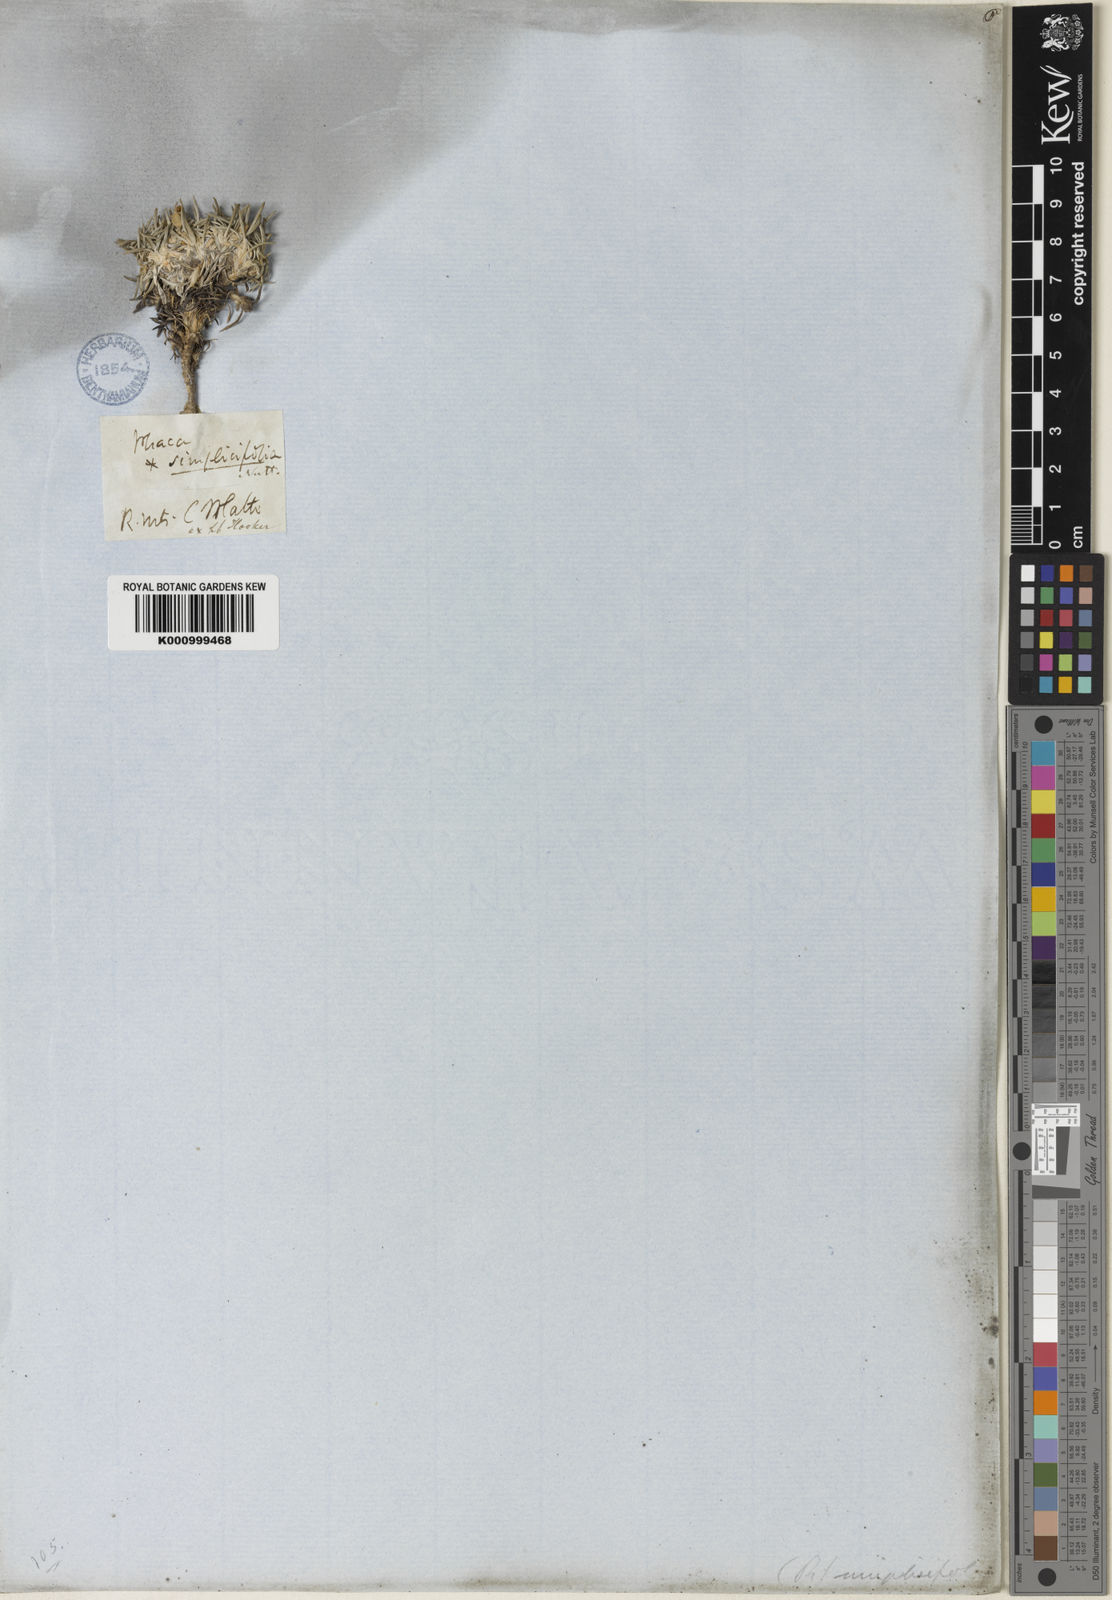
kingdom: Plantae
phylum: Tracheophyta
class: Magnoliopsida
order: Fabales
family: Fabaceae
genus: Astragalus
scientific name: Astragalus simplicifolius
